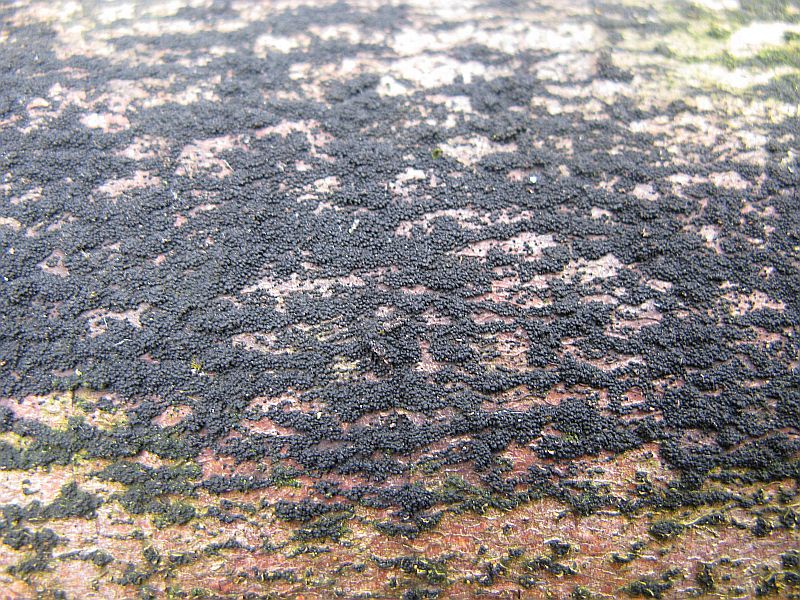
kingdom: Fungi
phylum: Ascomycota
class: Dothideomycetes
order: Pleosporales
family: Melanommataceae
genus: Melanomma
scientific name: Melanomma pulvis-pyrius
